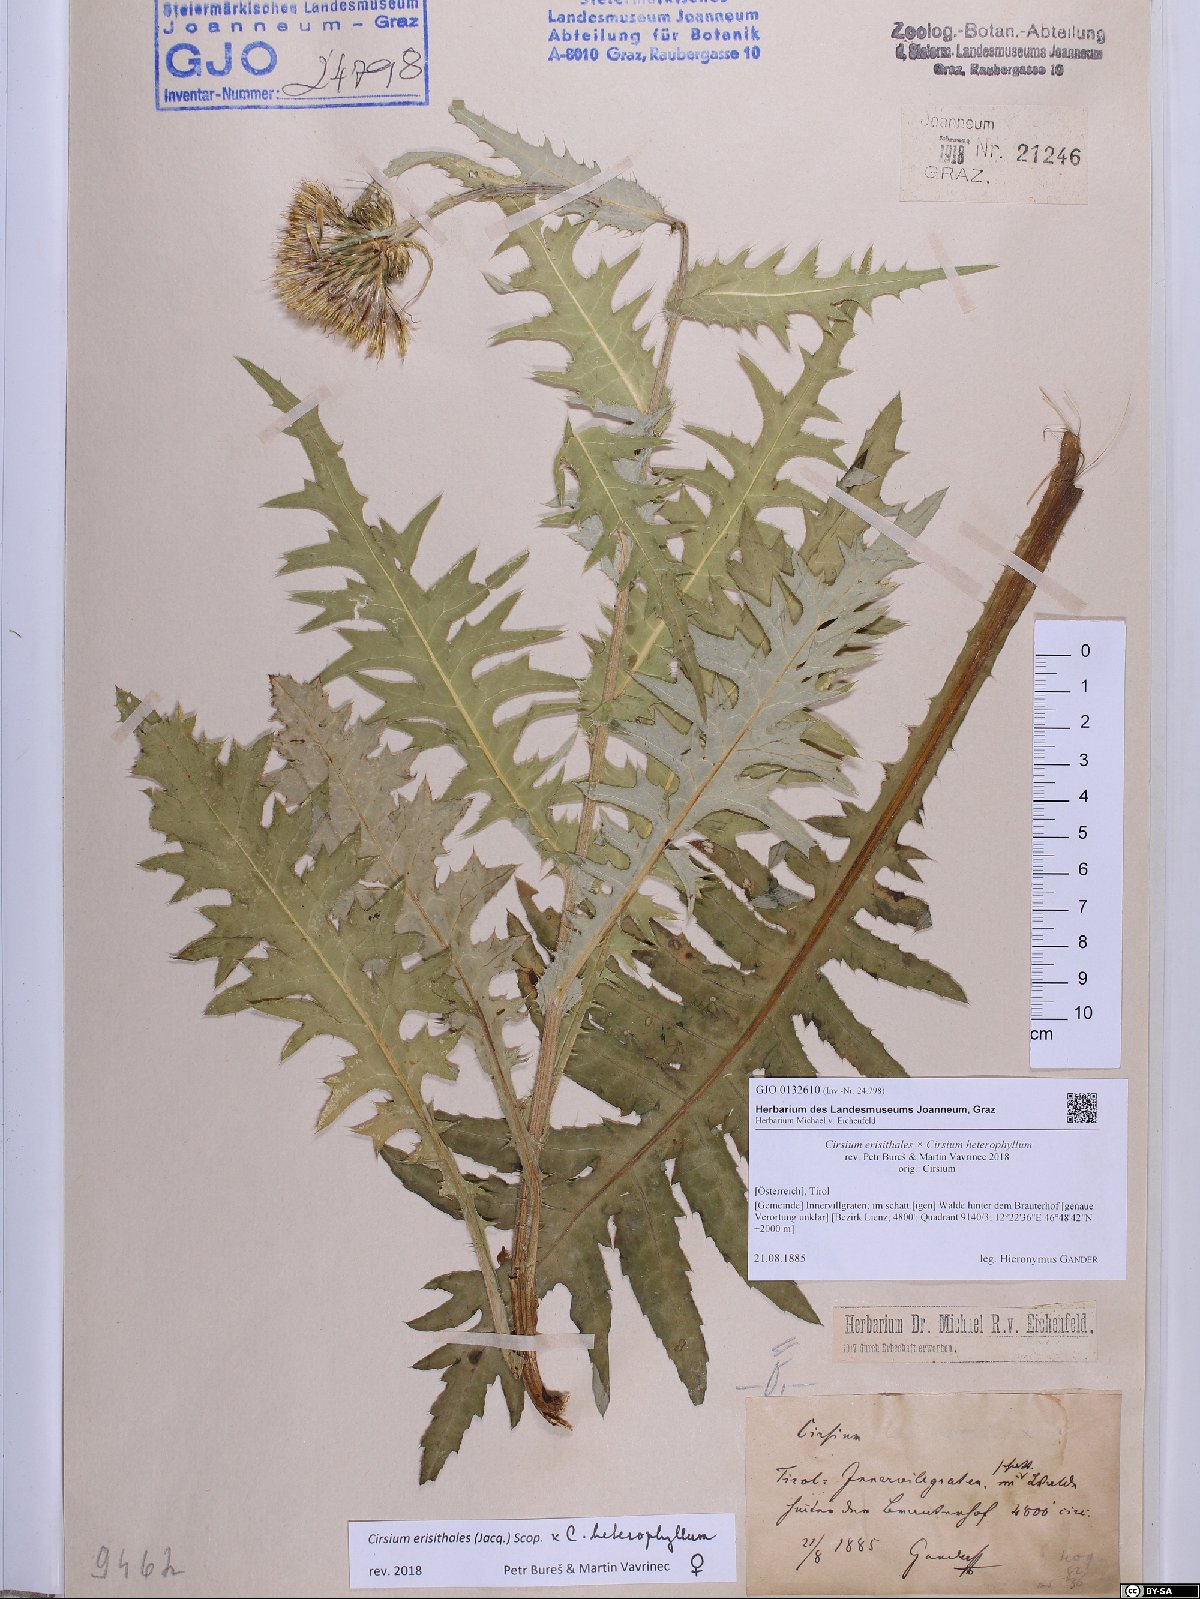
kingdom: Plantae
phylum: Tracheophyta
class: Magnoliopsida
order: Asterales
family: Asteraceae
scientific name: Asteraceae
